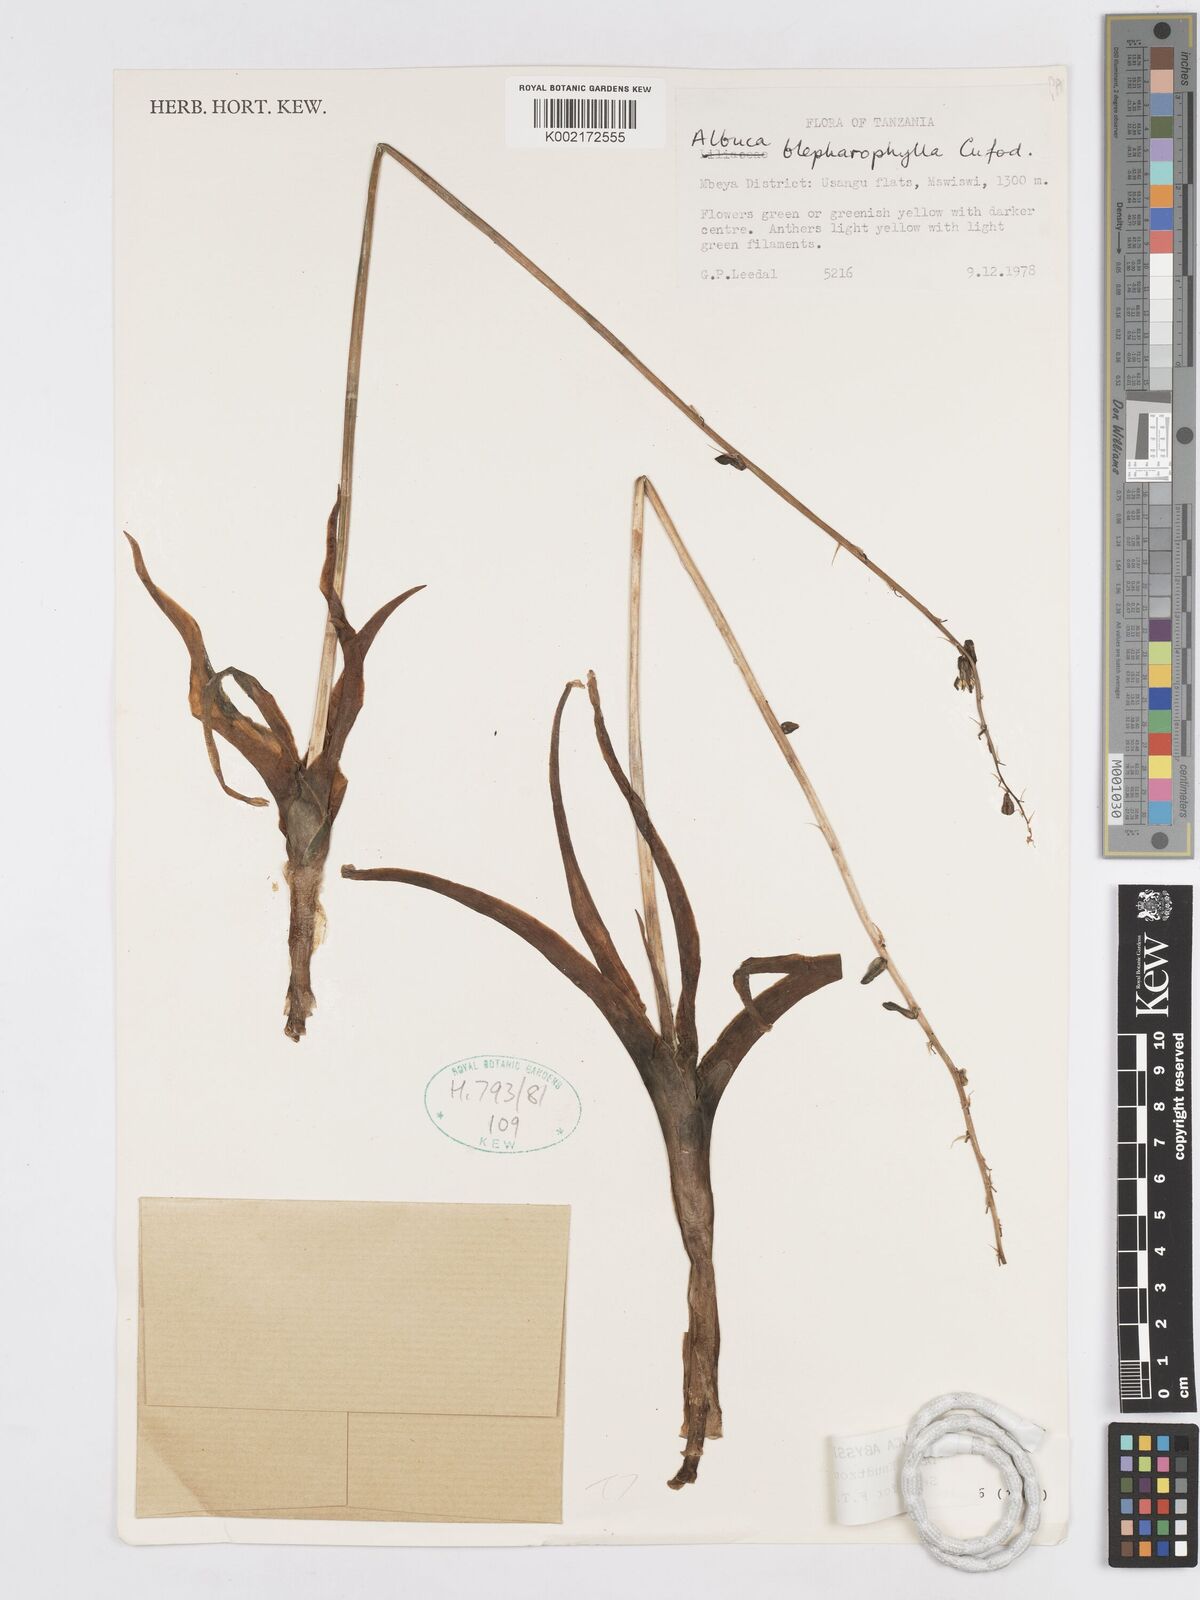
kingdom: Plantae
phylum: Tracheophyta
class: Liliopsida
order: Asparagales
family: Asparagaceae
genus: Albuca
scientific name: Albuca abyssinica
